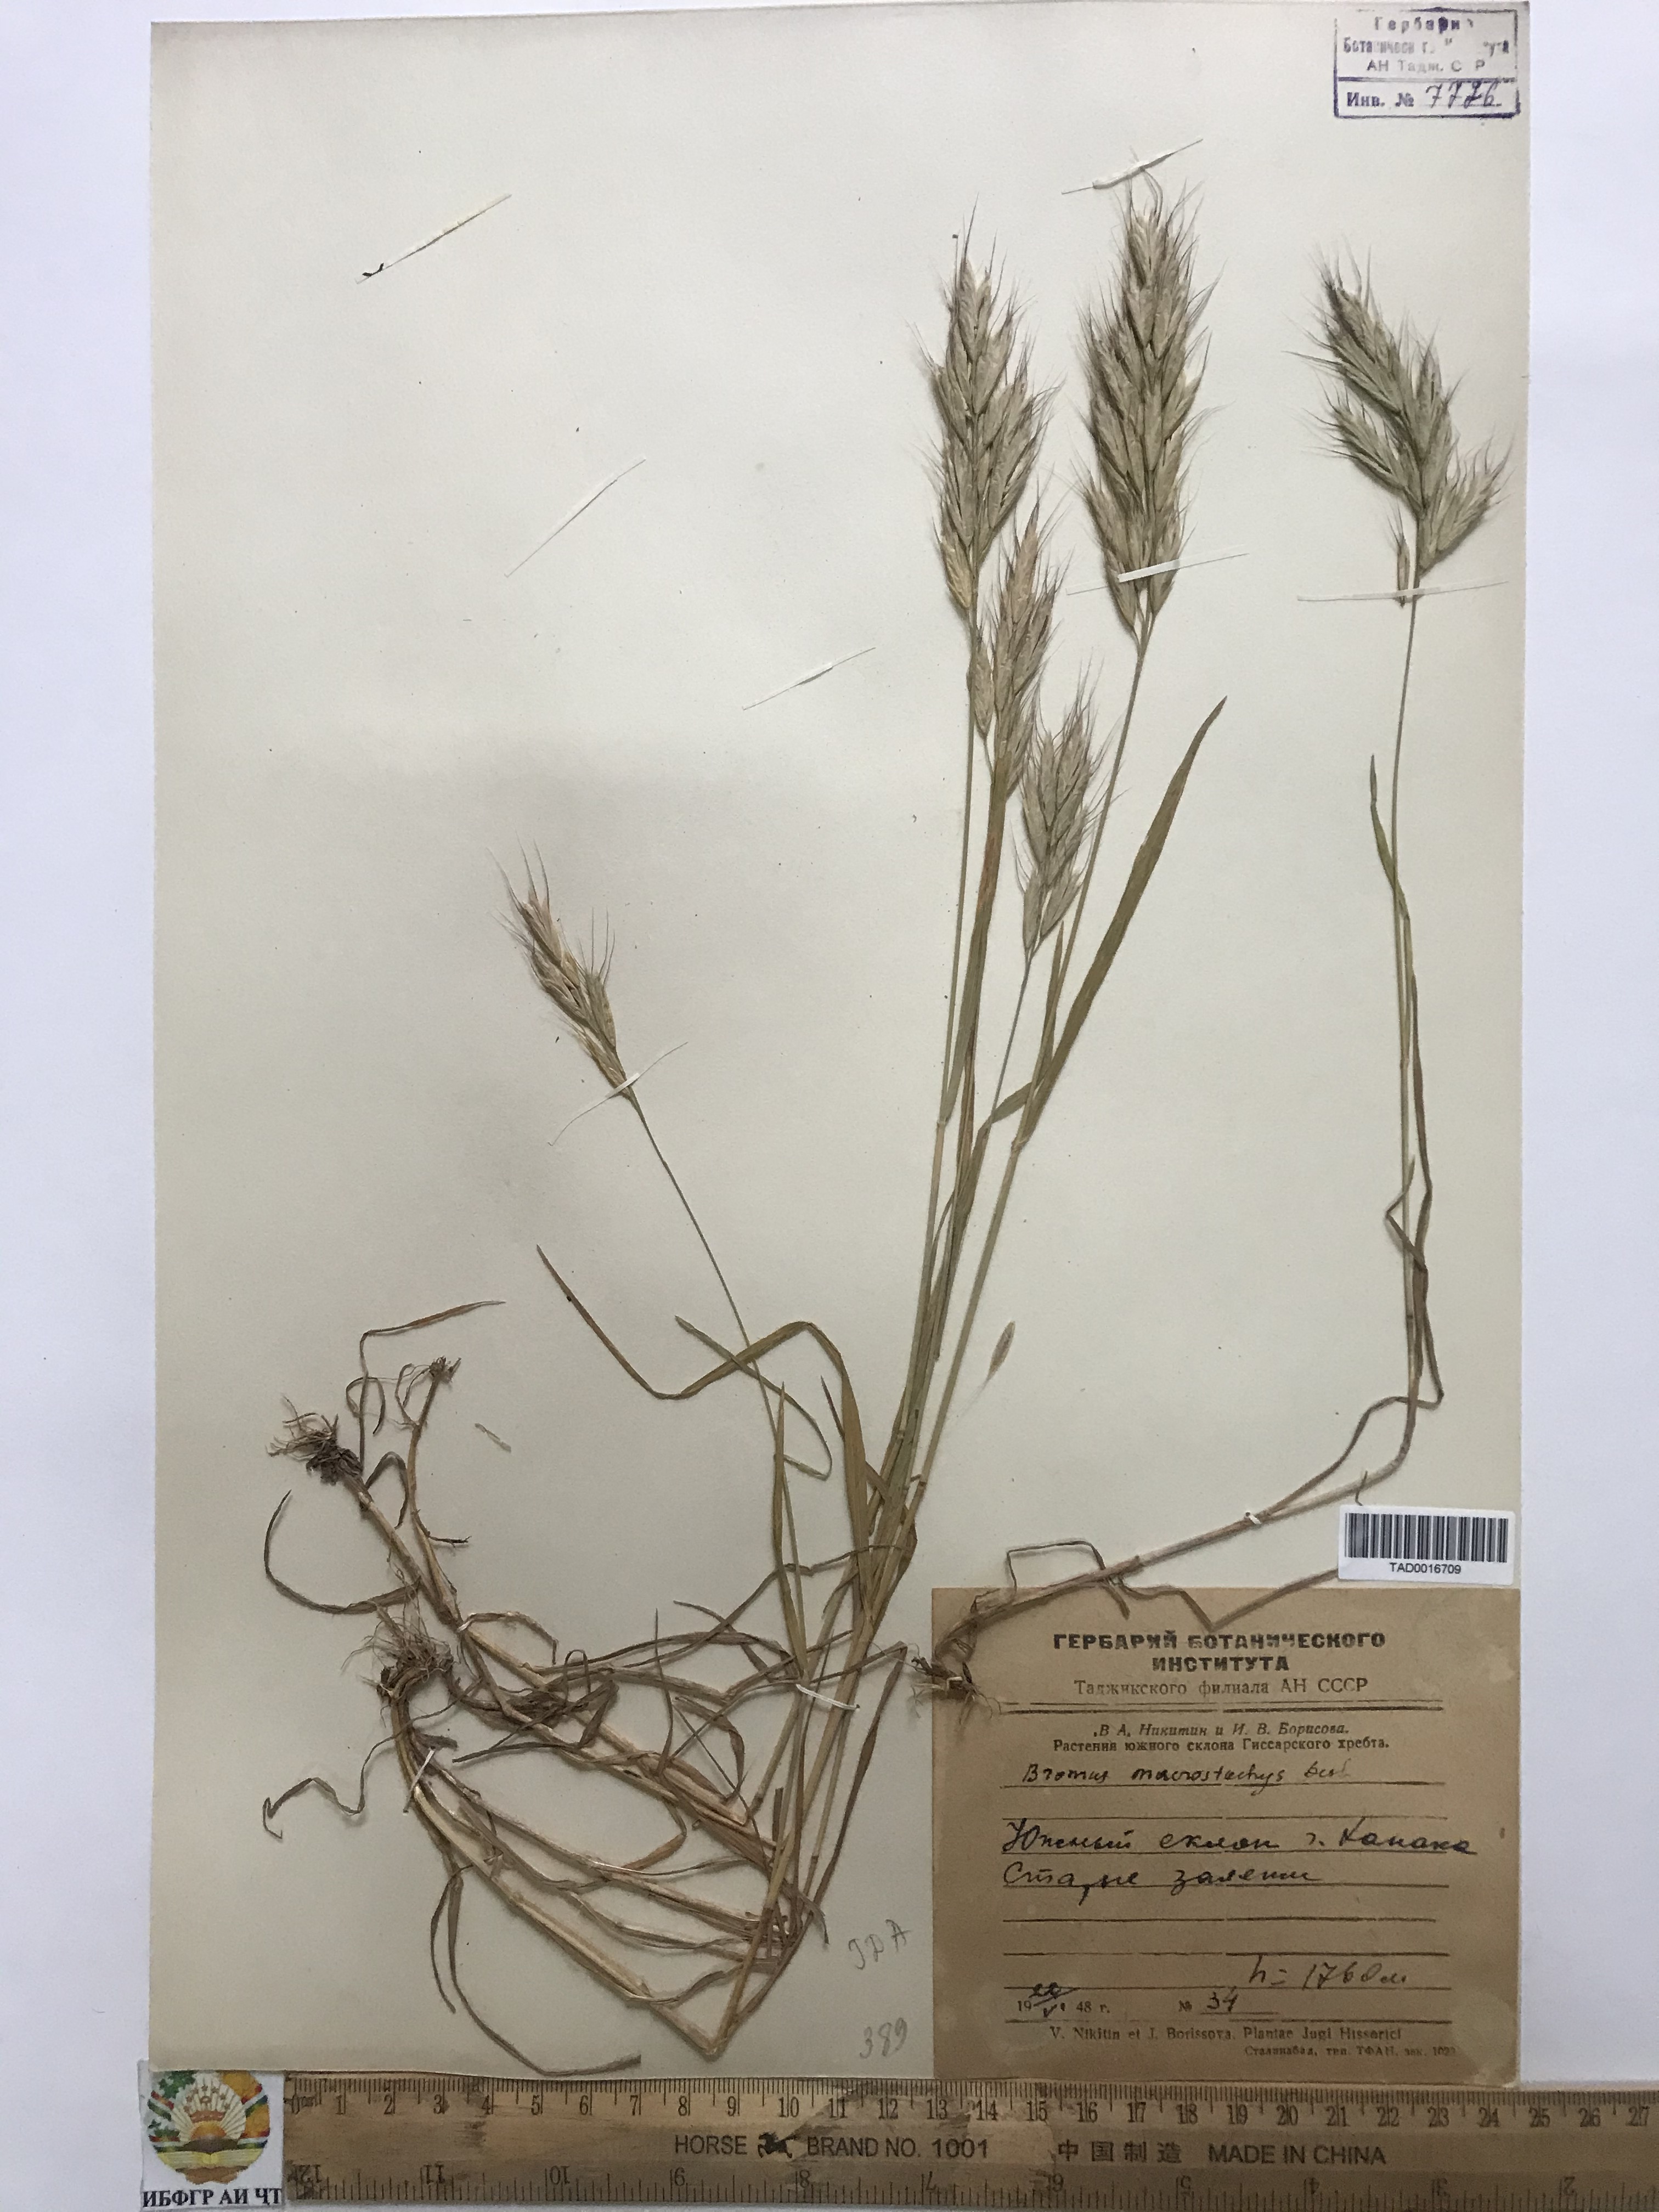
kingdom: Plantae
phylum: Tracheophyta
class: Liliopsida
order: Poales
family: Poaceae
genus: Bromus
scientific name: Bromus lanceolatus
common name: Mediterranean brome
